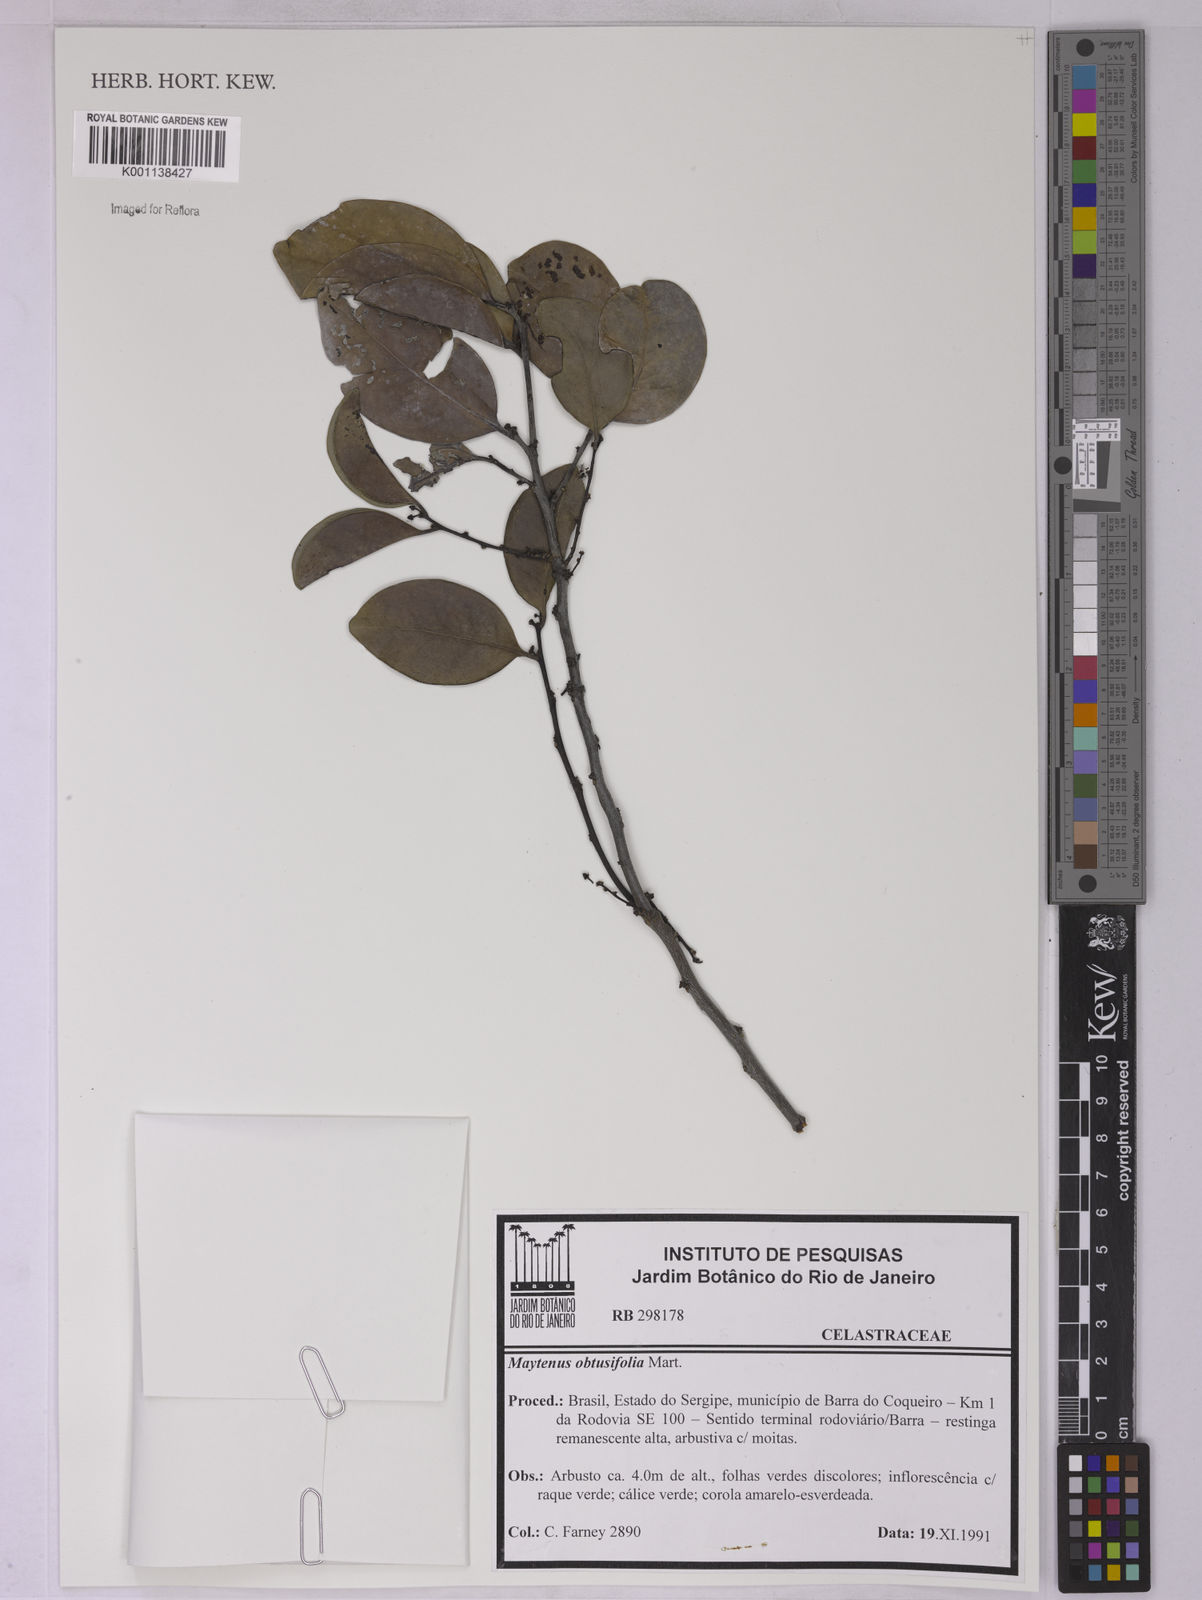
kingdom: Plantae
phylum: Tracheophyta
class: Magnoliopsida
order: Celastrales
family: Celastraceae
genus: Monteverdia
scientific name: Monteverdia obtusifolia
